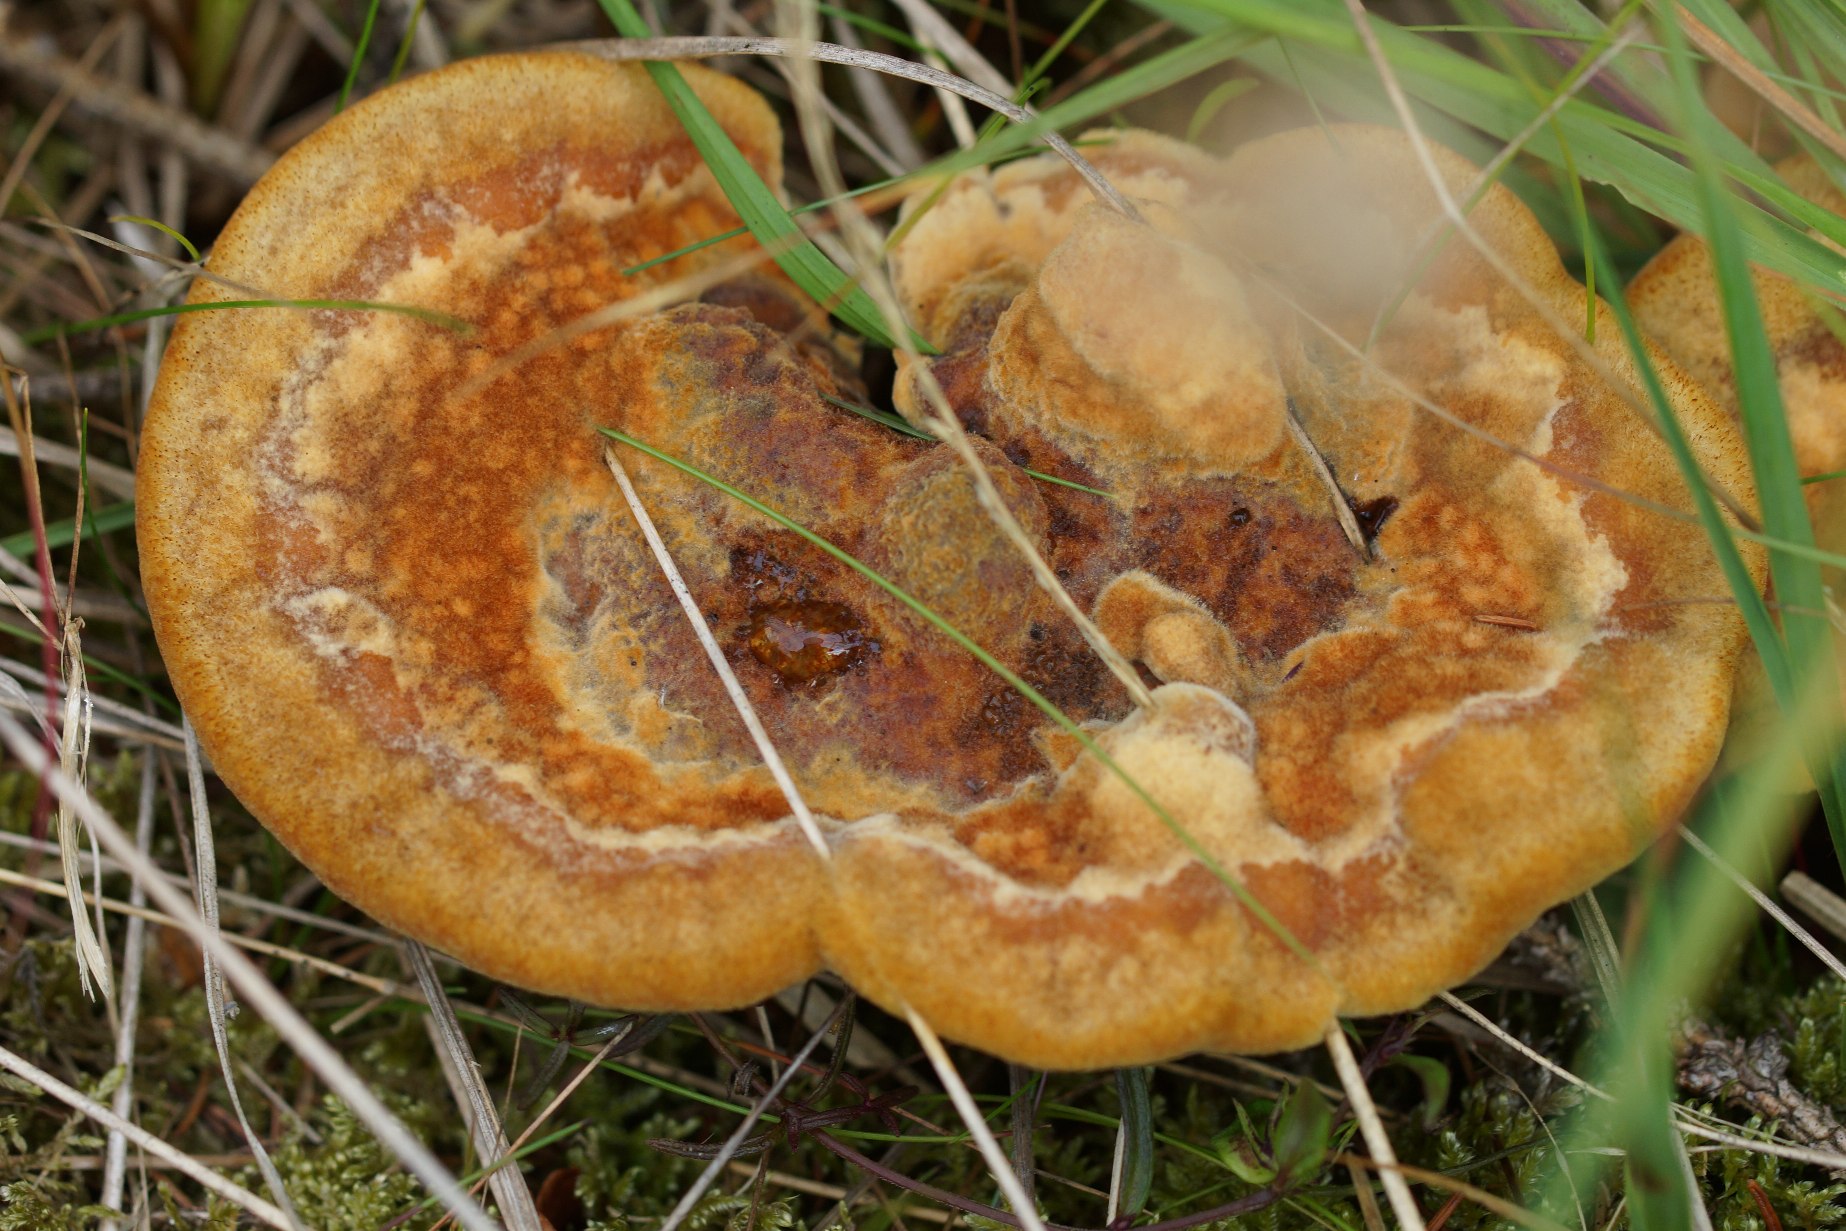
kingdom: Fungi
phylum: Basidiomycota
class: Agaricomycetes
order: Polyporales
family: Laetiporaceae
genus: Phaeolus
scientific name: Phaeolus schweinitzii
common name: Brunporesvamp
